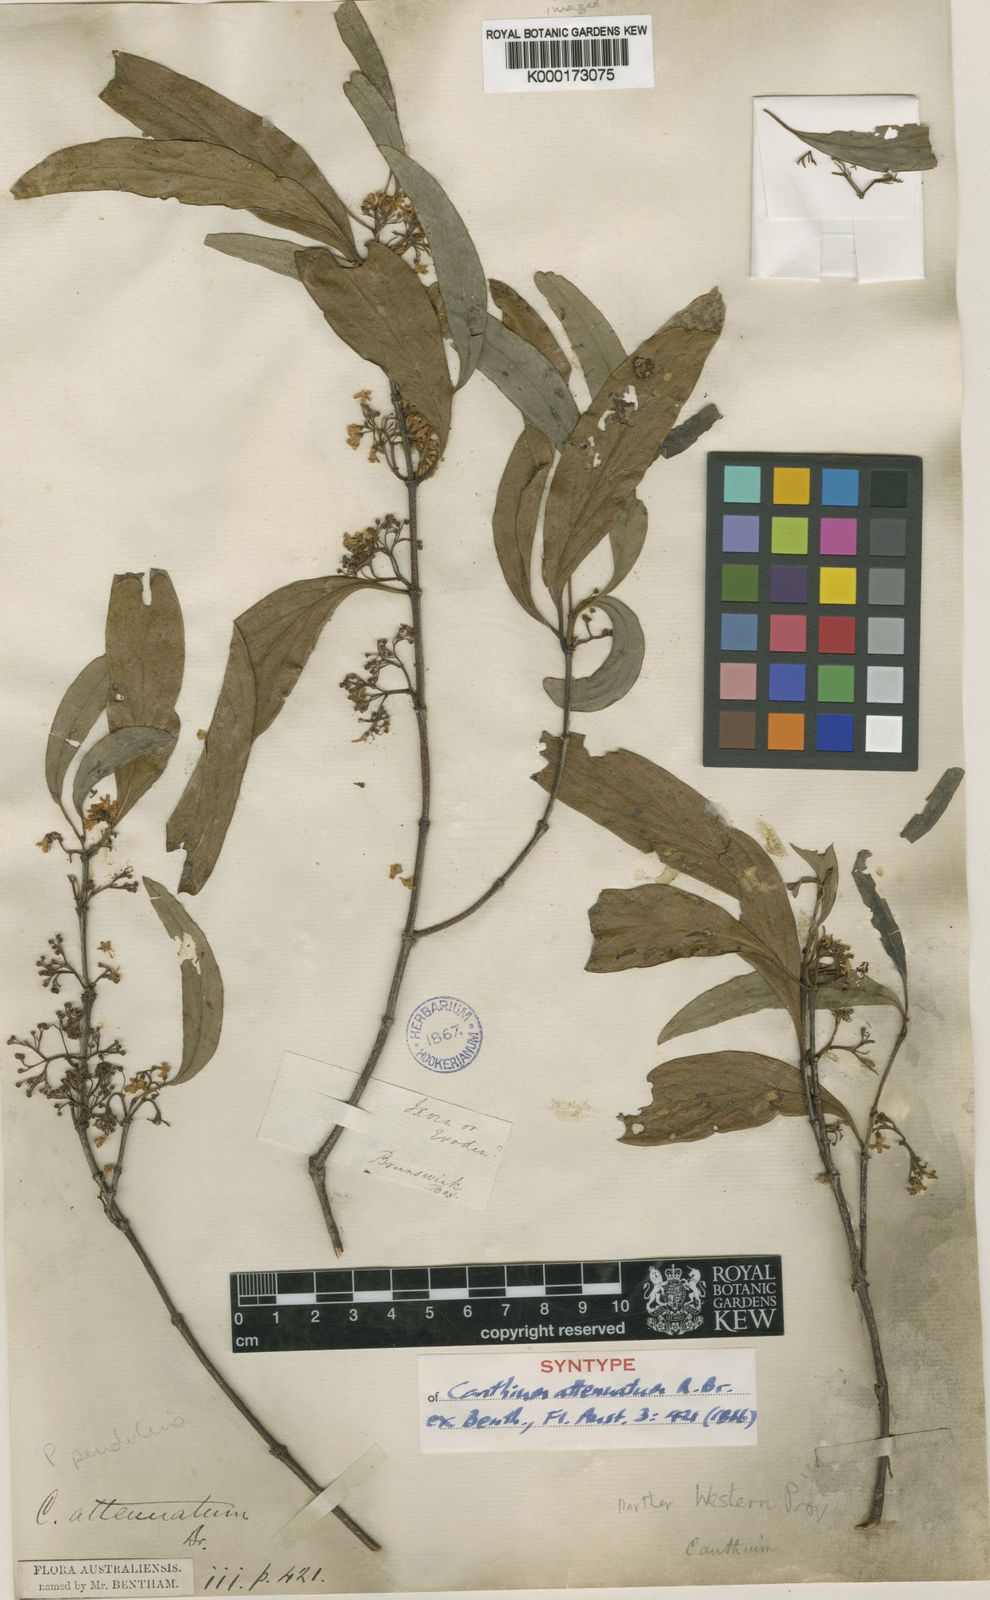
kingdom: Plantae
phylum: Tracheophyta
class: Magnoliopsida
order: Gentianales
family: Rubiaceae
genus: Psydrax
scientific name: Psydrax pendulinus
